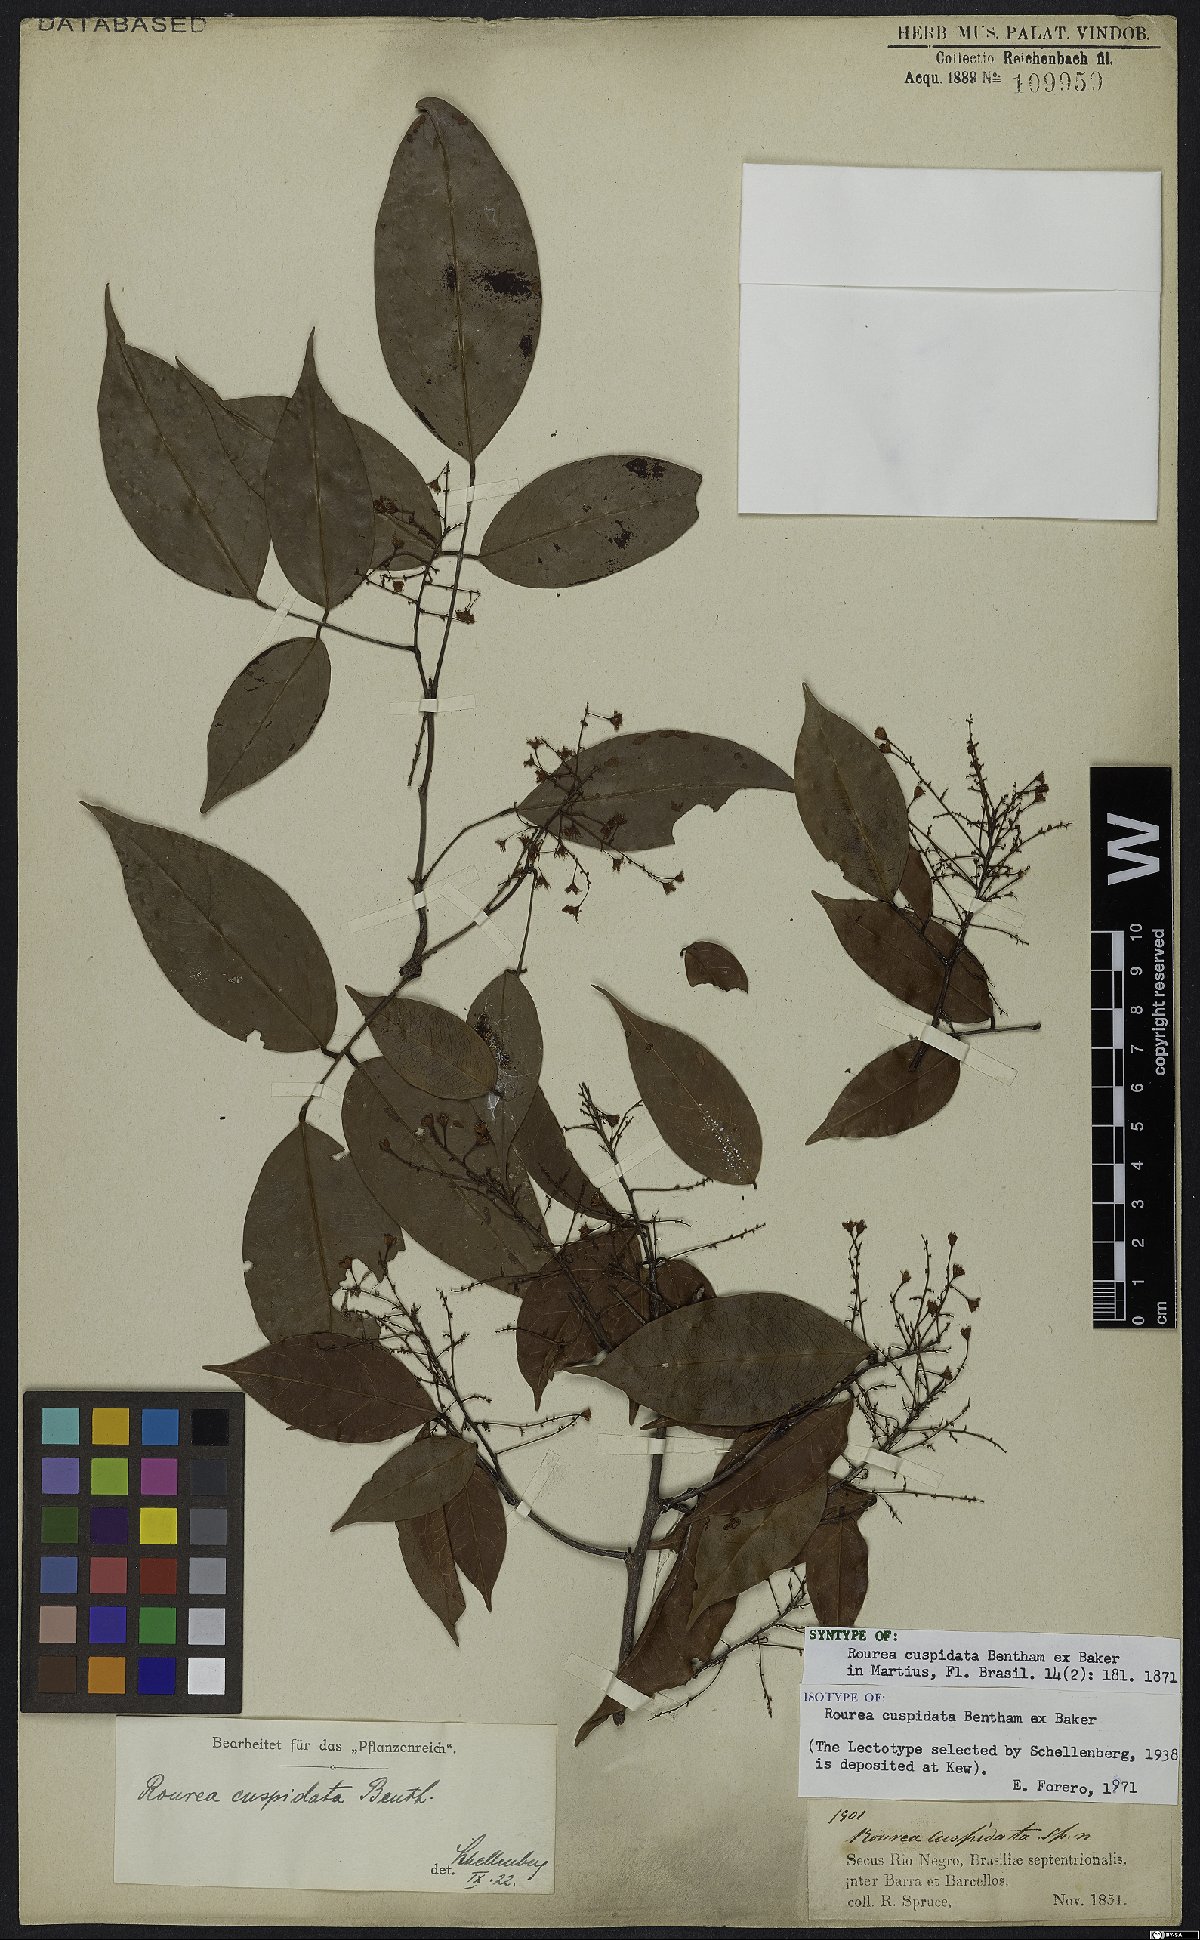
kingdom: Plantae
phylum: Tracheophyta
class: Magnoliopsida
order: Oxalidales
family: Connaraceae
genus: Rourea
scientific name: Rourea cuspidata
